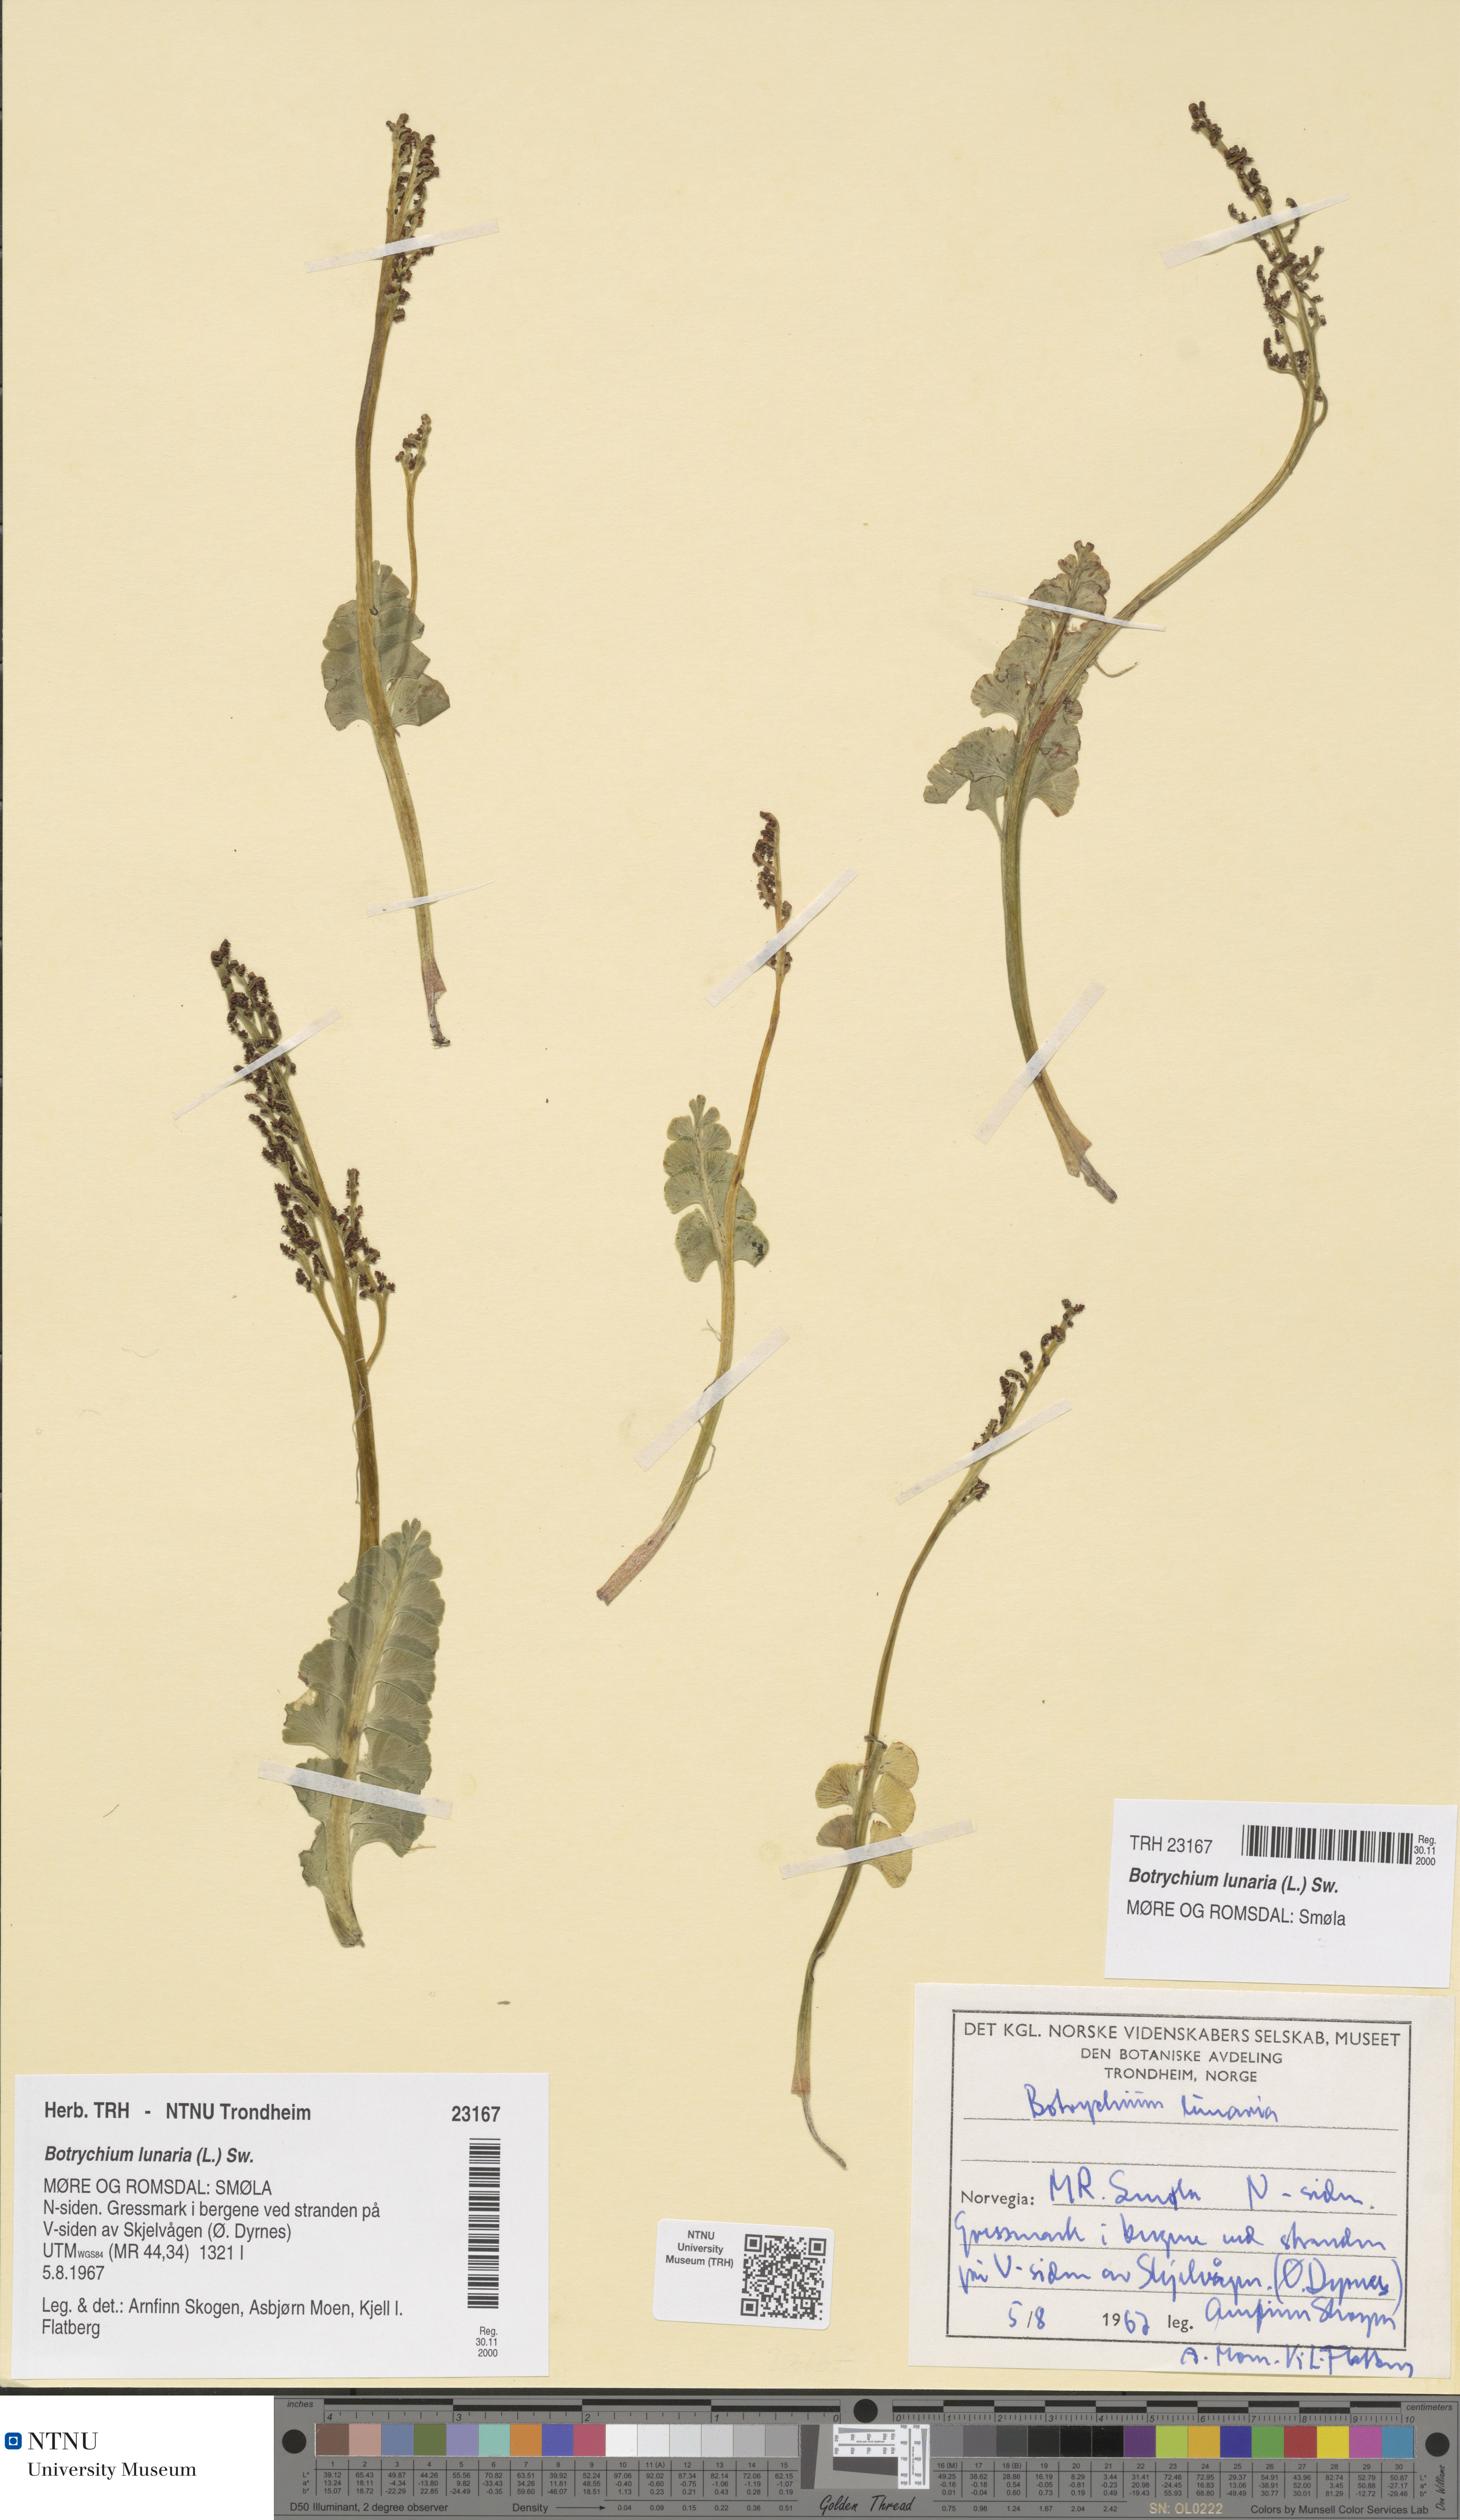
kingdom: Plantae
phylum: Tracheophyta
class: Polypodiopsida
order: Ophioglossales
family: Ophioglossaceae
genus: Botrychium
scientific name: Botrychium lunaria
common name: Moonwort
